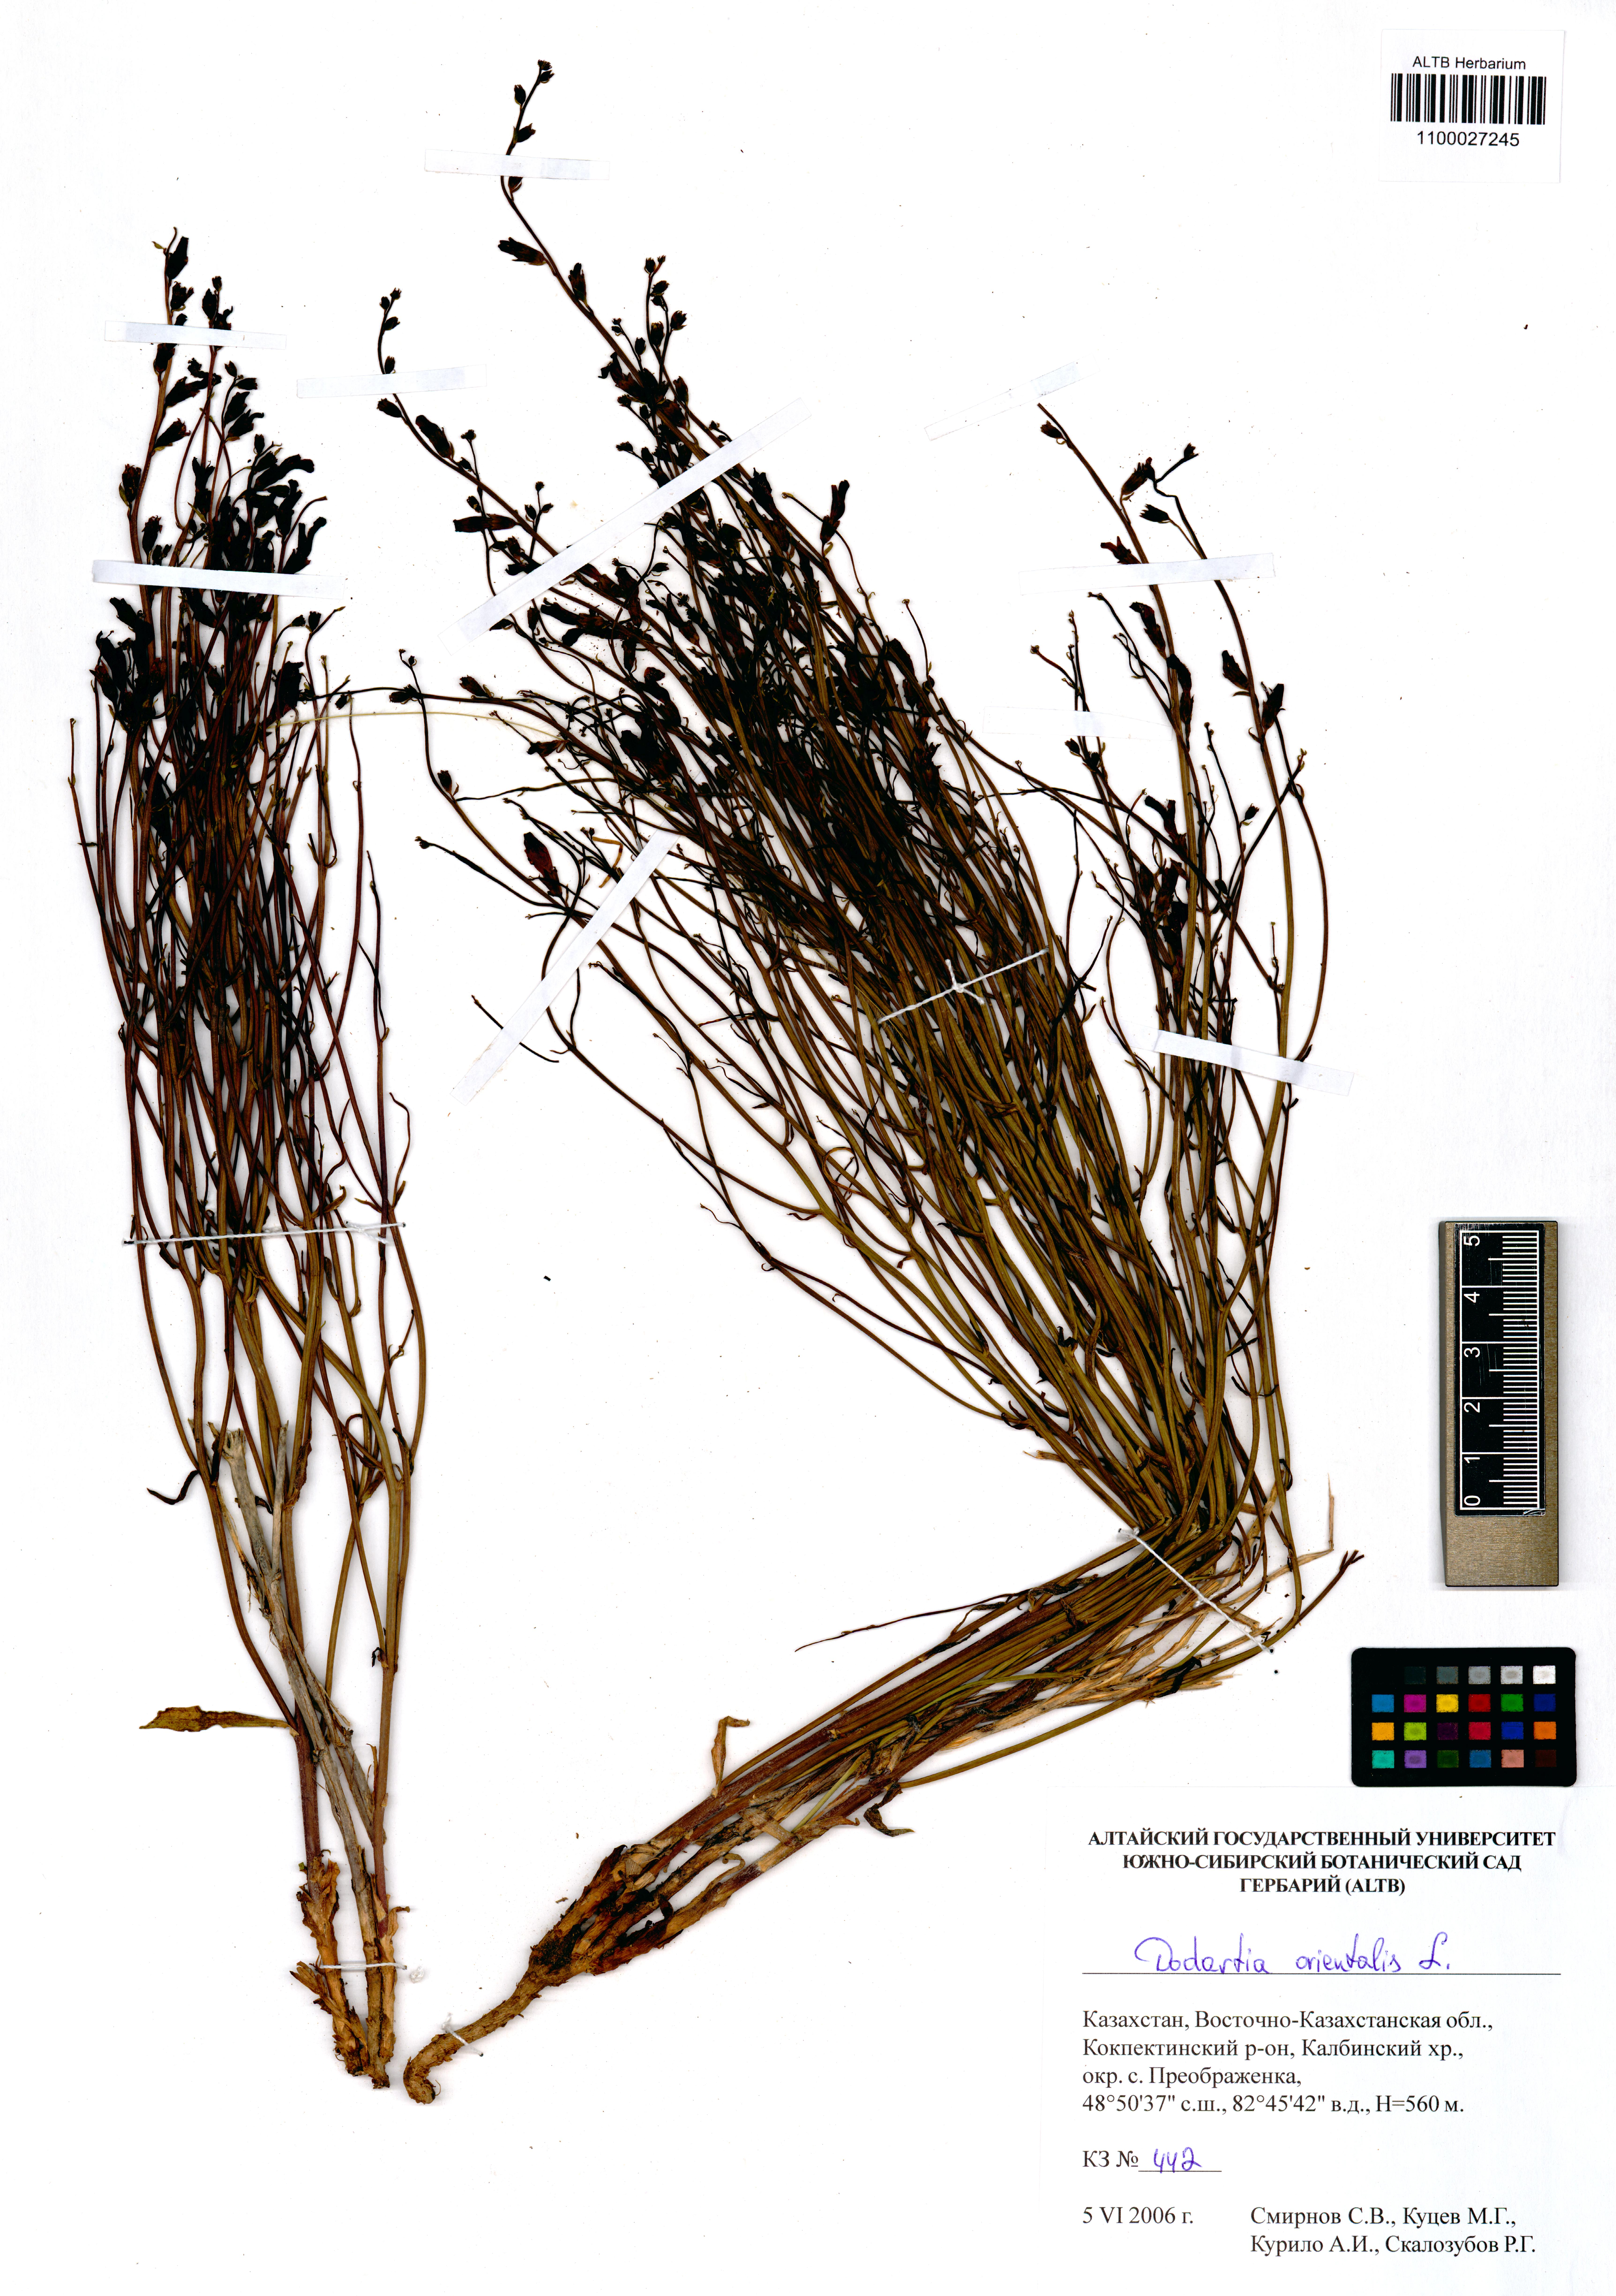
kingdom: Plantae
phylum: Tracheophyta
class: Magnoliopsida
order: Lamiales
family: Mazaceae
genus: Dodartia
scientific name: Dodartia orientalis
